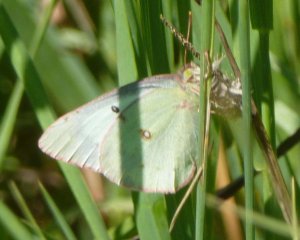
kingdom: Animalia
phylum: Arthropoda
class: Insecta
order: Lepidoptera
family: Pieridae
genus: Colias
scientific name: Colias philodice
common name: Clouded Sulphur
